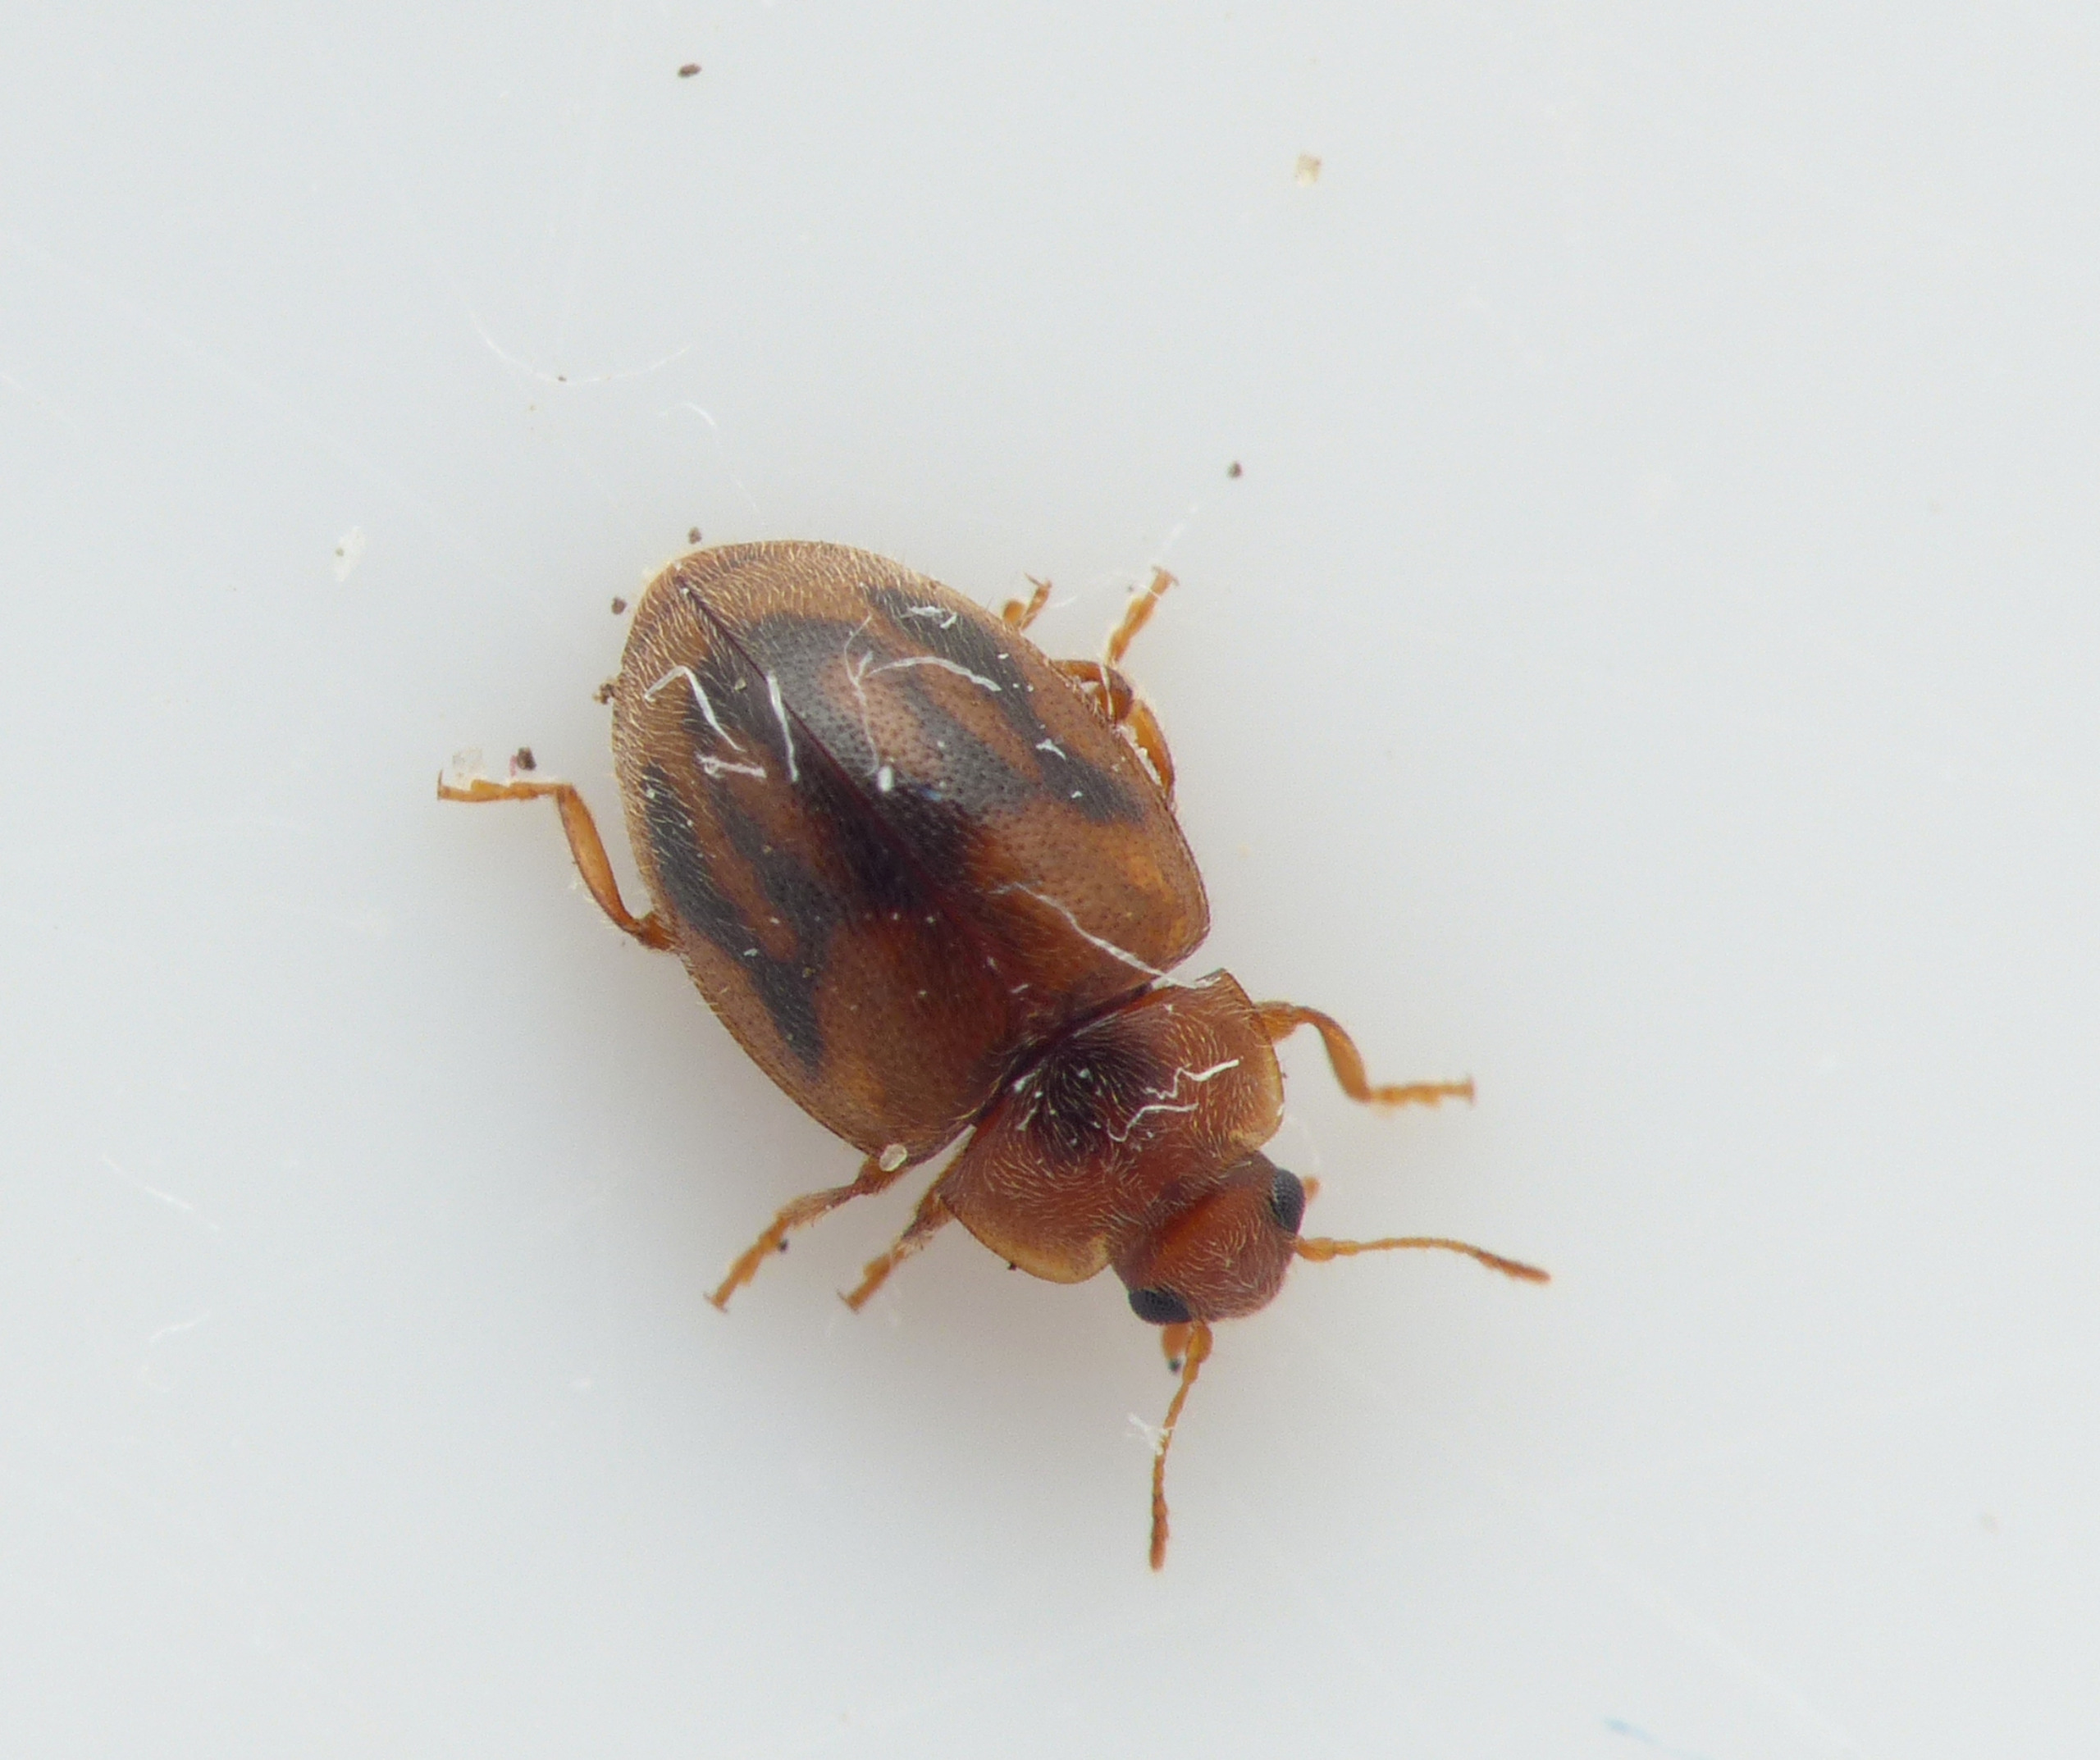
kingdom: Animalia
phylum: Arthropoda
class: Insecta
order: Coleoptera
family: Coccinellidae
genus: Rhyzobius
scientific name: Rhyzobius litura
